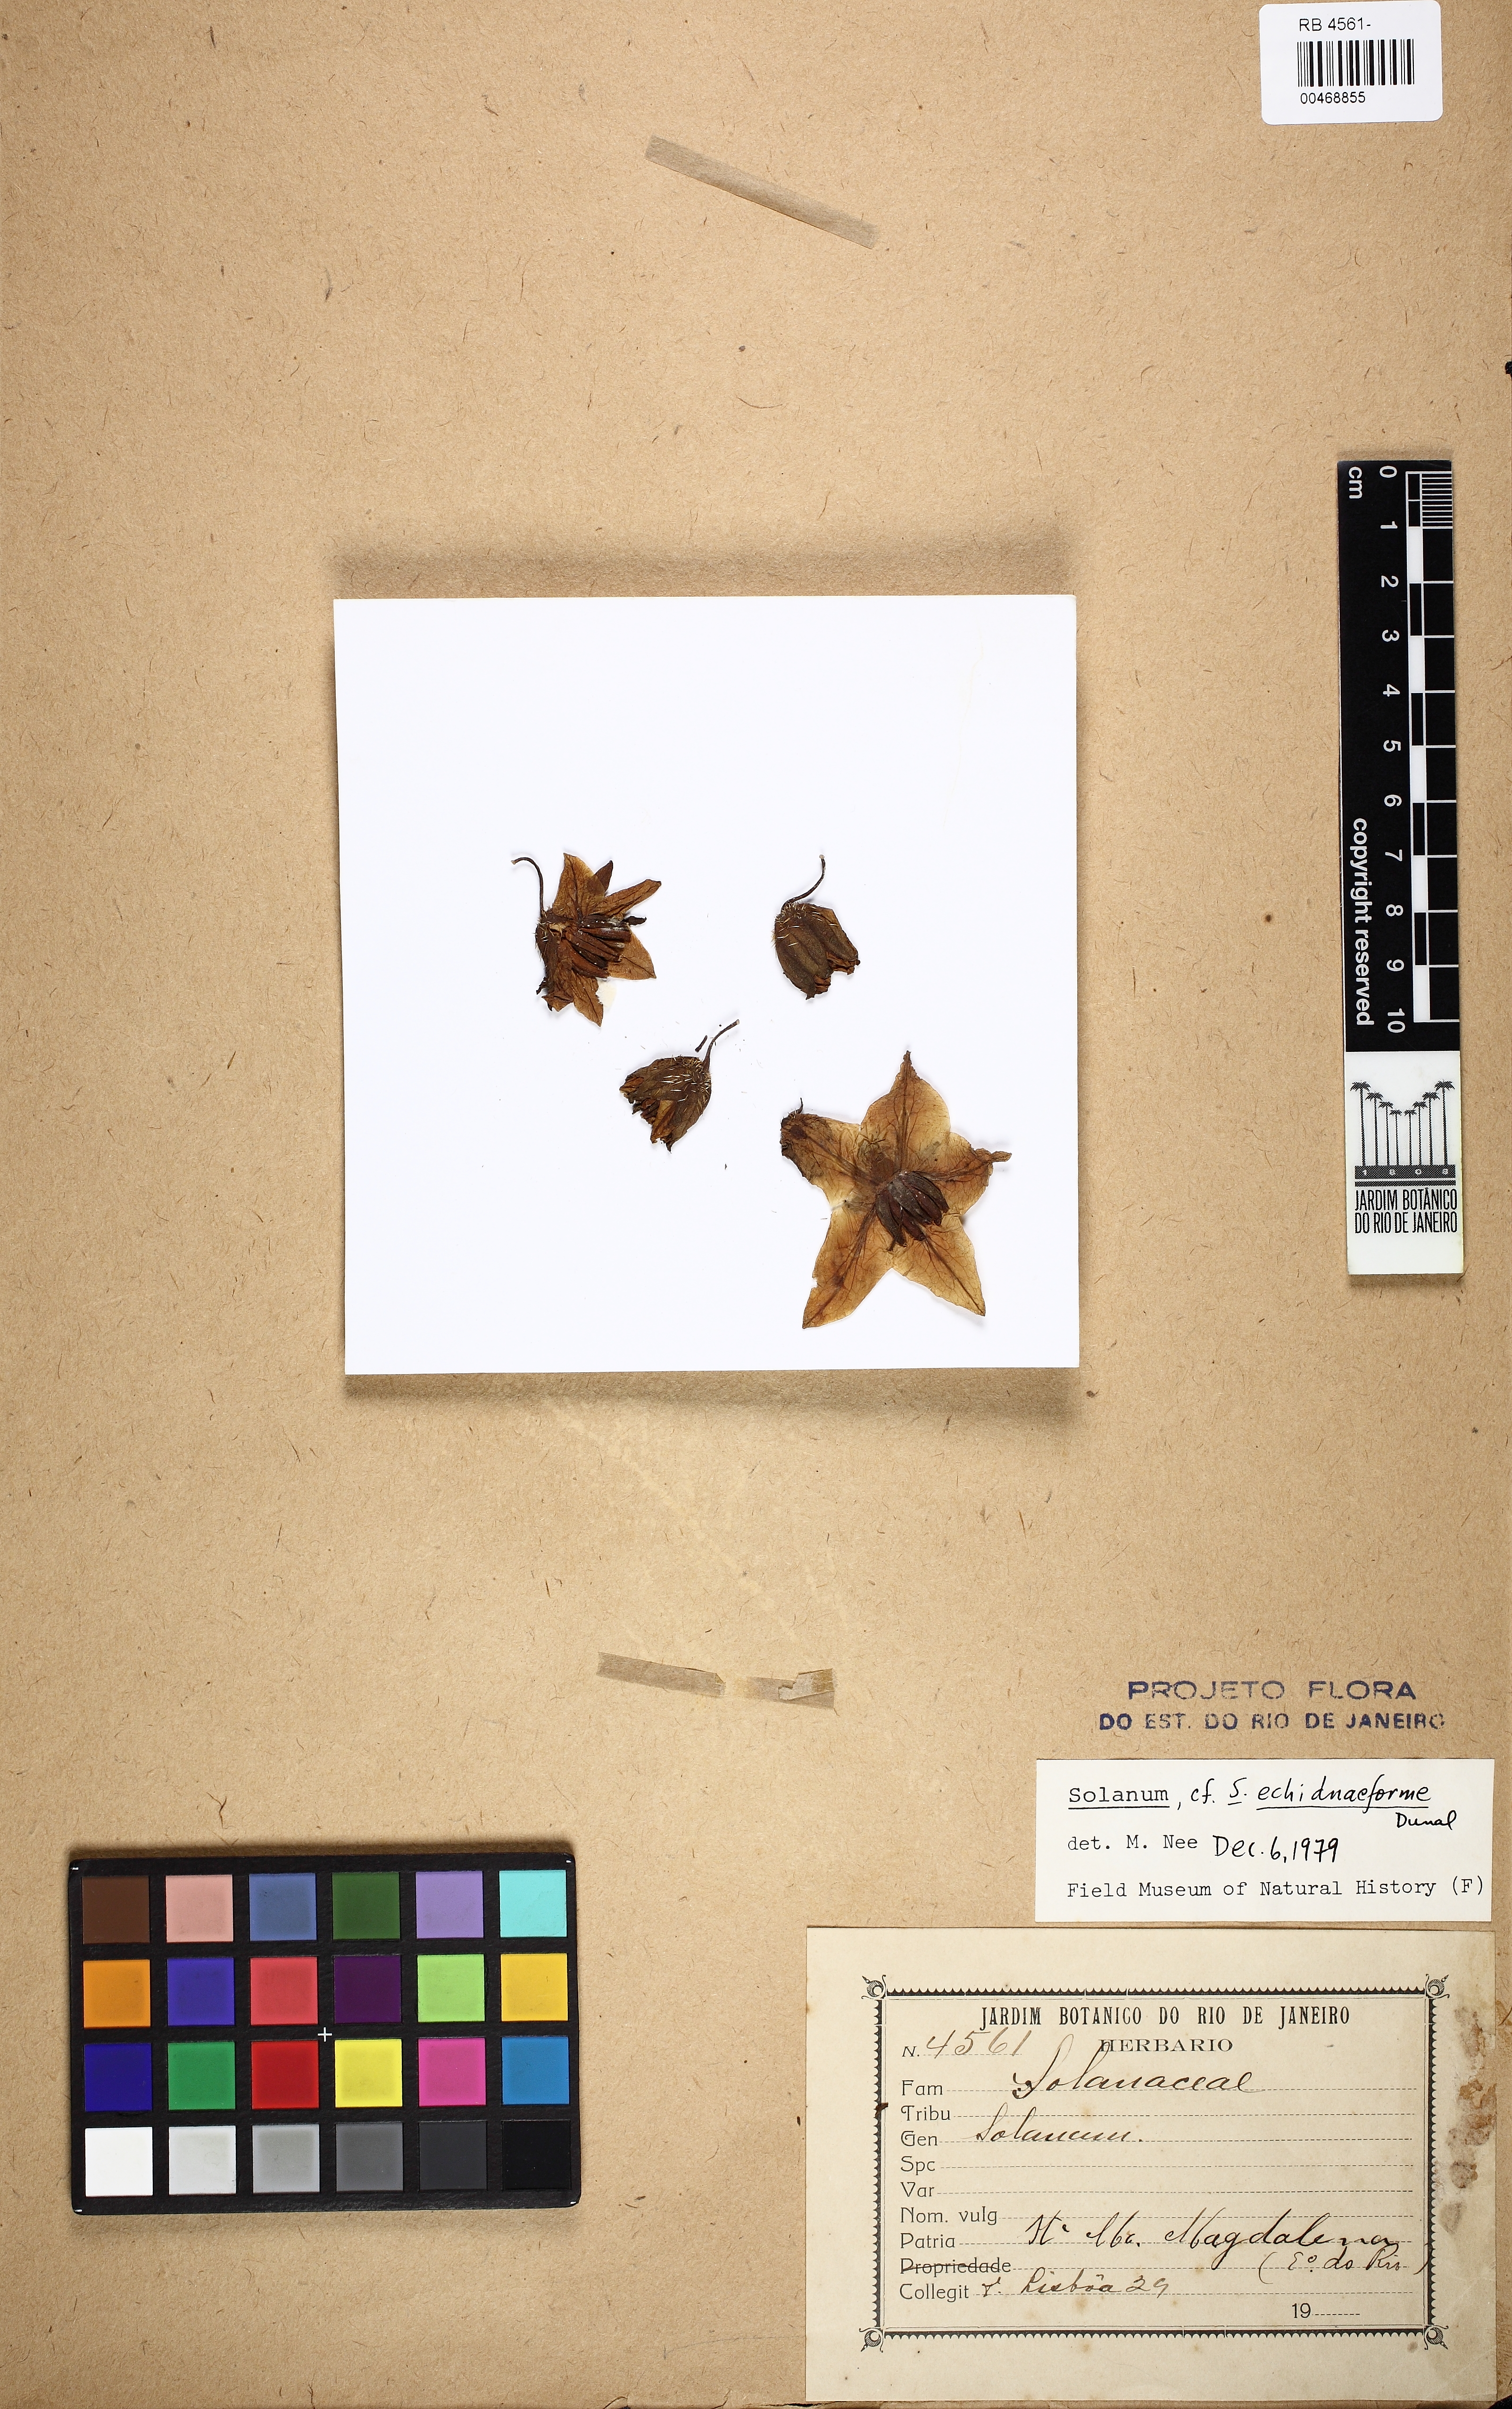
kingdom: Plantae
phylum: Tracheophyta
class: Magnoliopsida
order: Solanales
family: Solanaceae
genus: Solanum
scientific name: Solanum hexandrum
